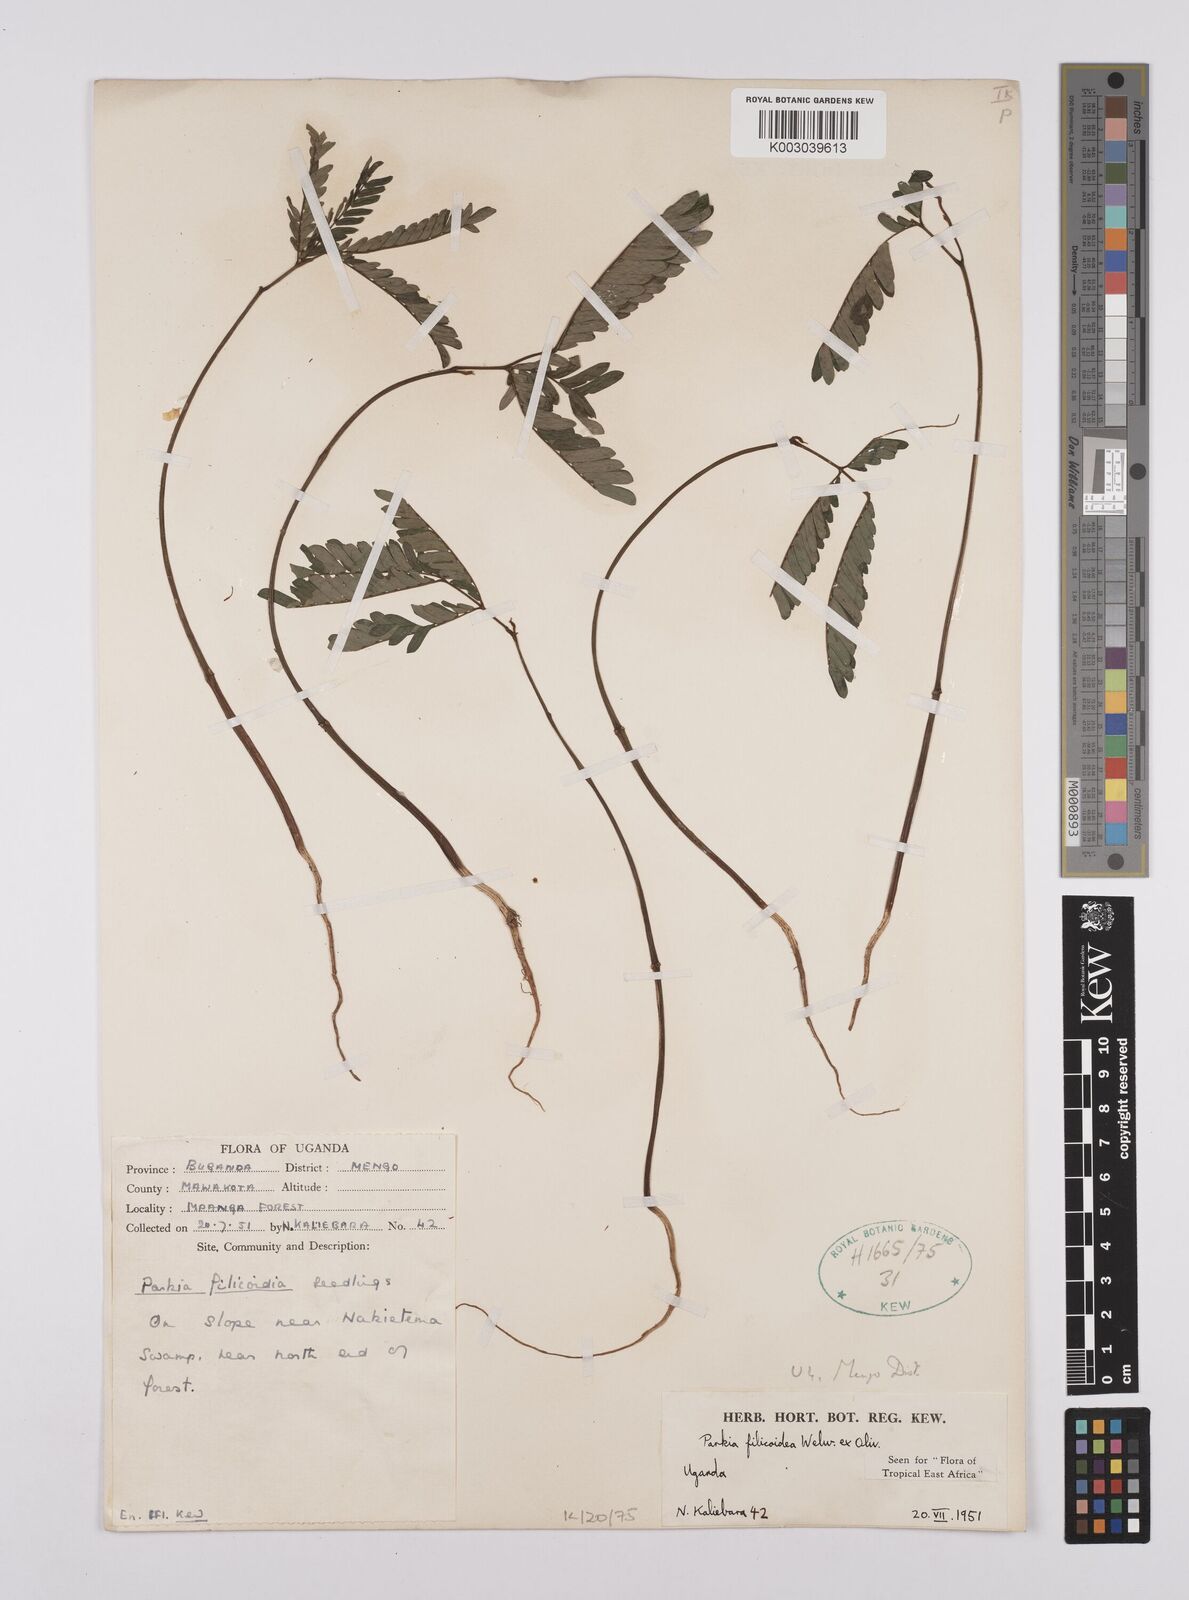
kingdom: Plantae
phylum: Tracheophyta
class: Magnoliopsida
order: Fabales
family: Fabaceae
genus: Parkia
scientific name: Parkia filicoidea
